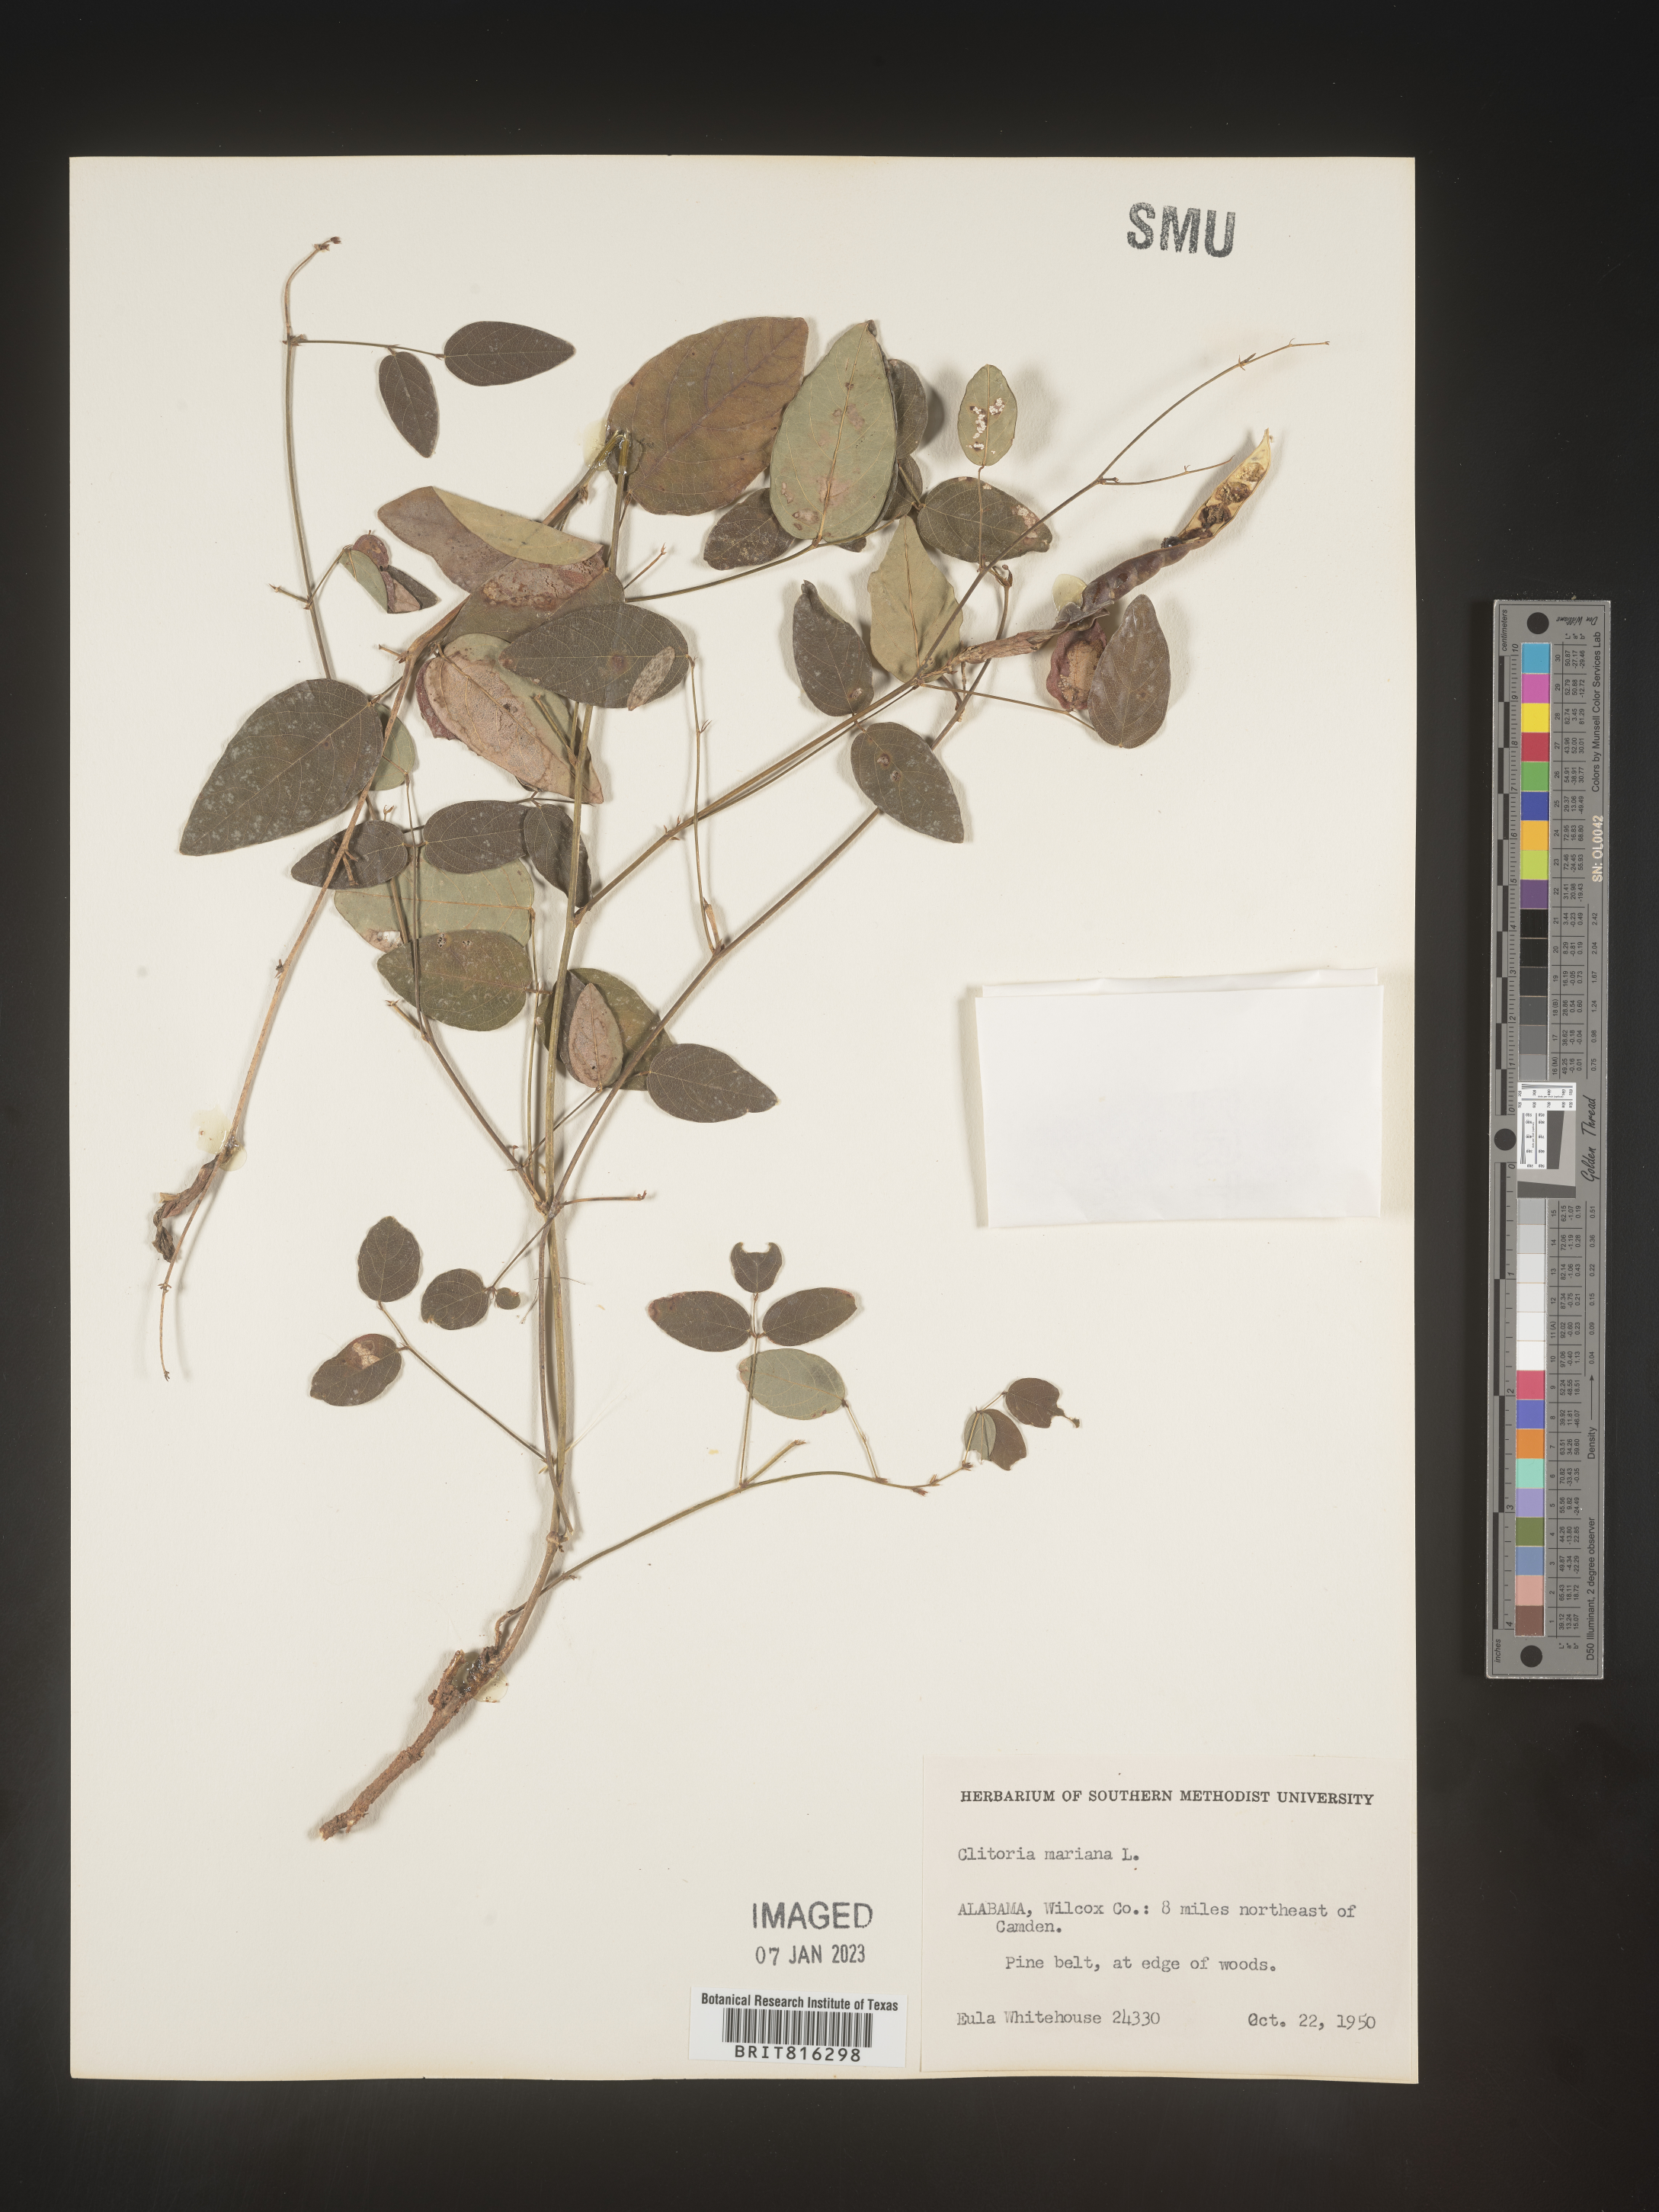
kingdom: Plantae
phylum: Tracheophyta
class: Magnoliopsida
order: Fabales
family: Fabaceae
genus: Clitoria
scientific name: Clitoria mariana
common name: Butterfly-pea
